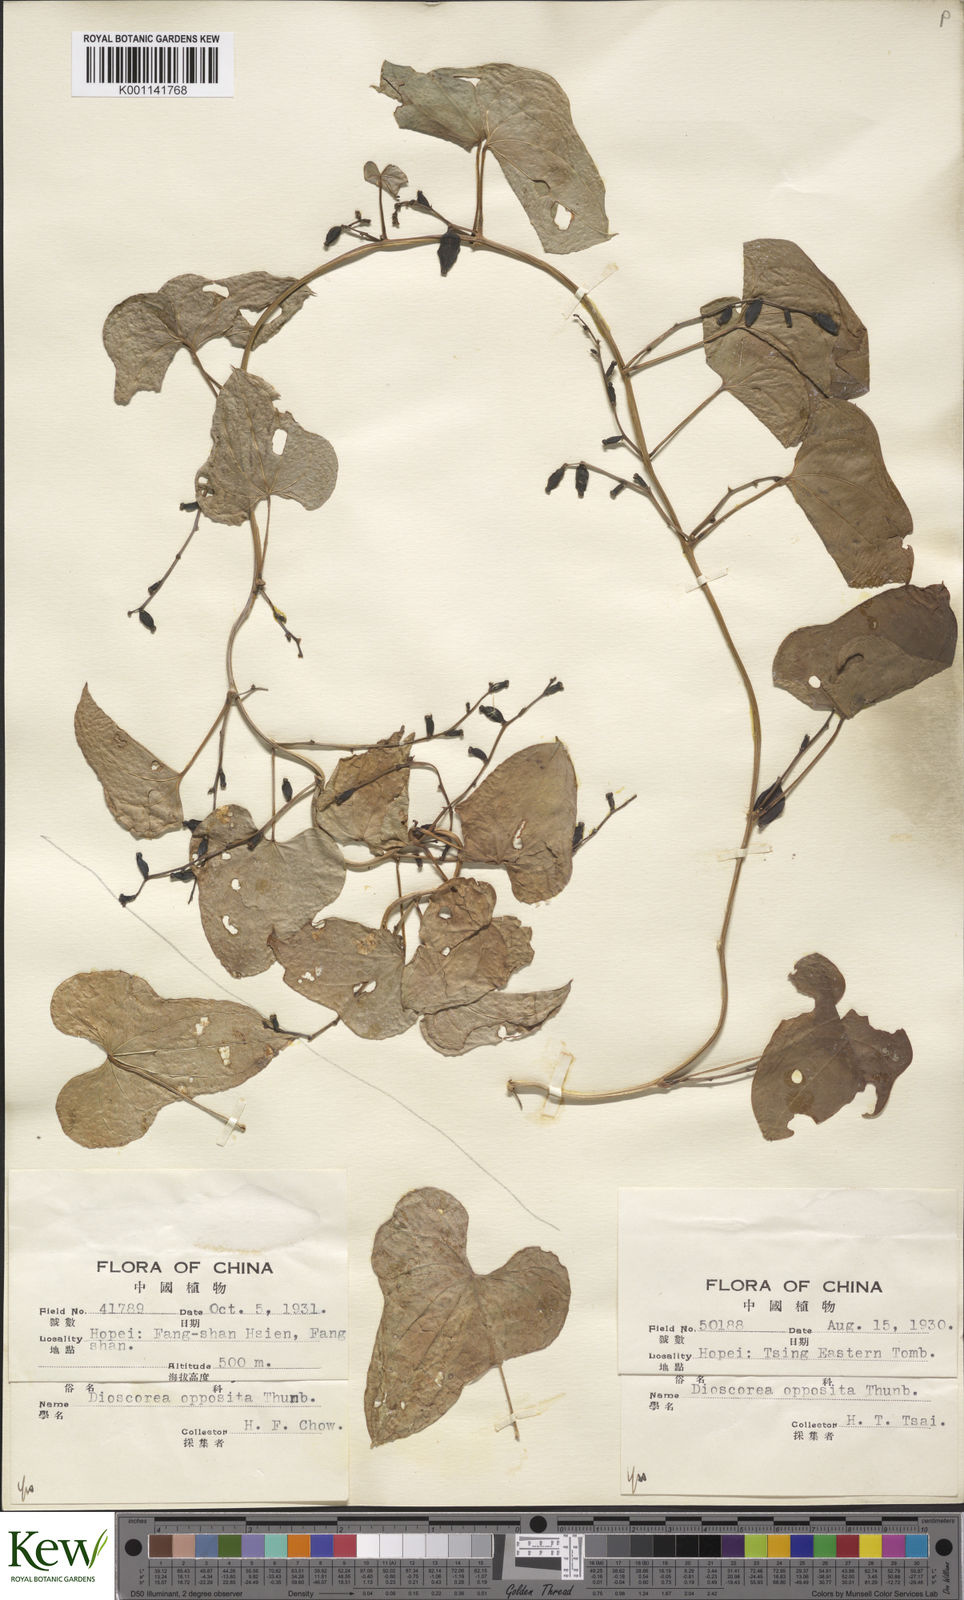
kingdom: Plantae
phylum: Tracheophyta
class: Liliopsida
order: Dioscoreales
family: Dioscoreaceae
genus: Dioscorea
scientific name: Dioscorea oppositifolia
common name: Chinese yam
